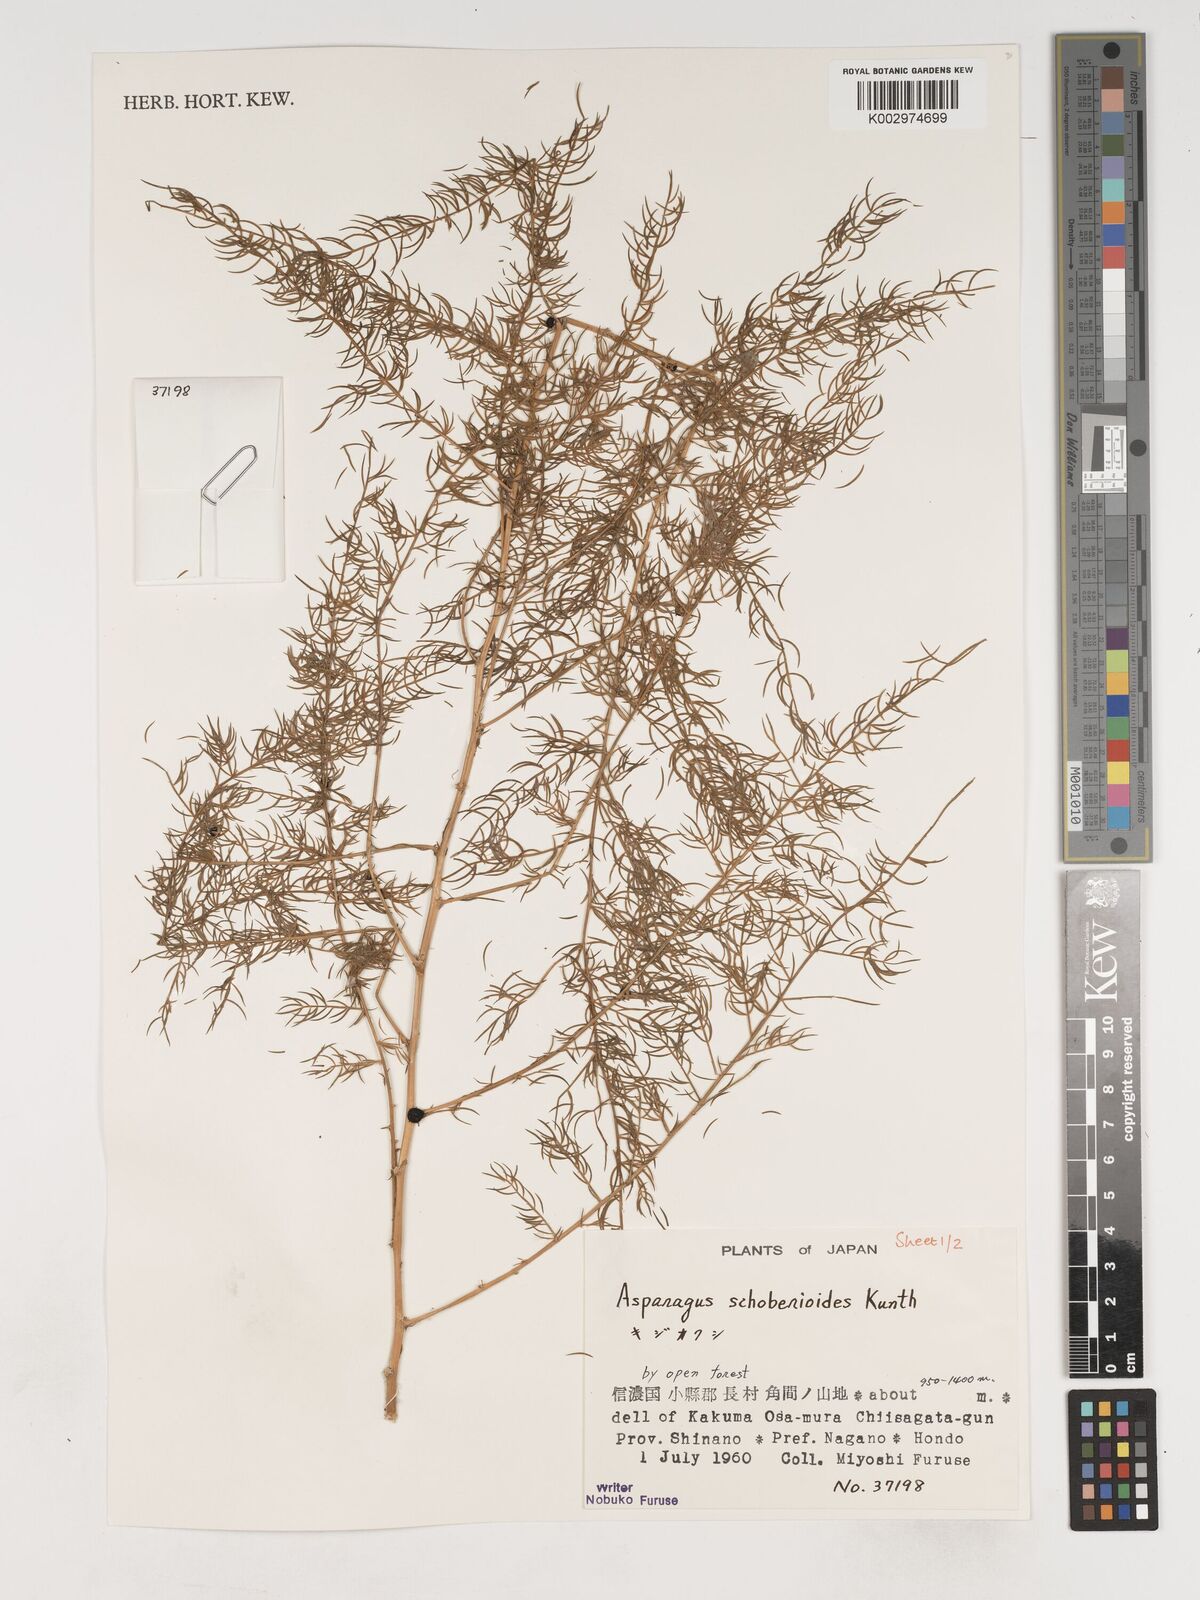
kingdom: Plantae
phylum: Tracheophyta
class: Liliopsida
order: Asparagales
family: Asparagaceae
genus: Asparagus
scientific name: Asparagus schoberioides
